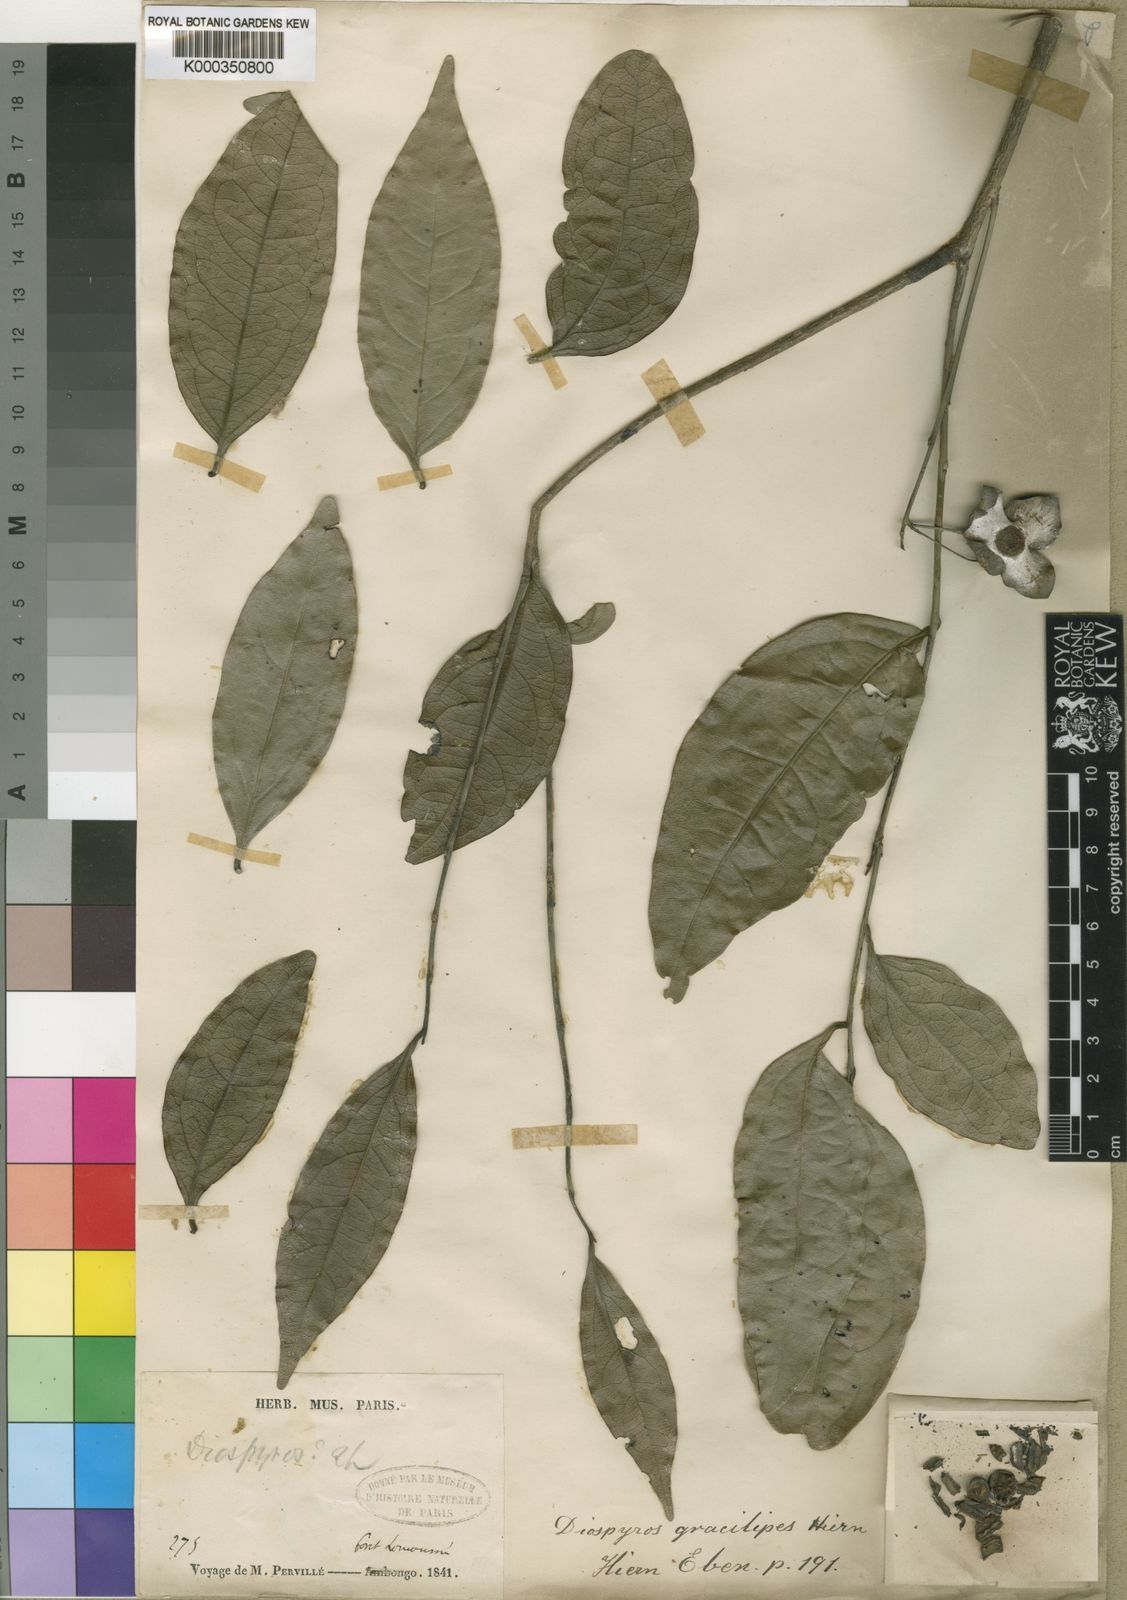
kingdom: Plantae
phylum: Tracheophyta
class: Magnoliopsida
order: Ericales
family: Ebenaceae
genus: Diospyros
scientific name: Diospyros gracilipes
